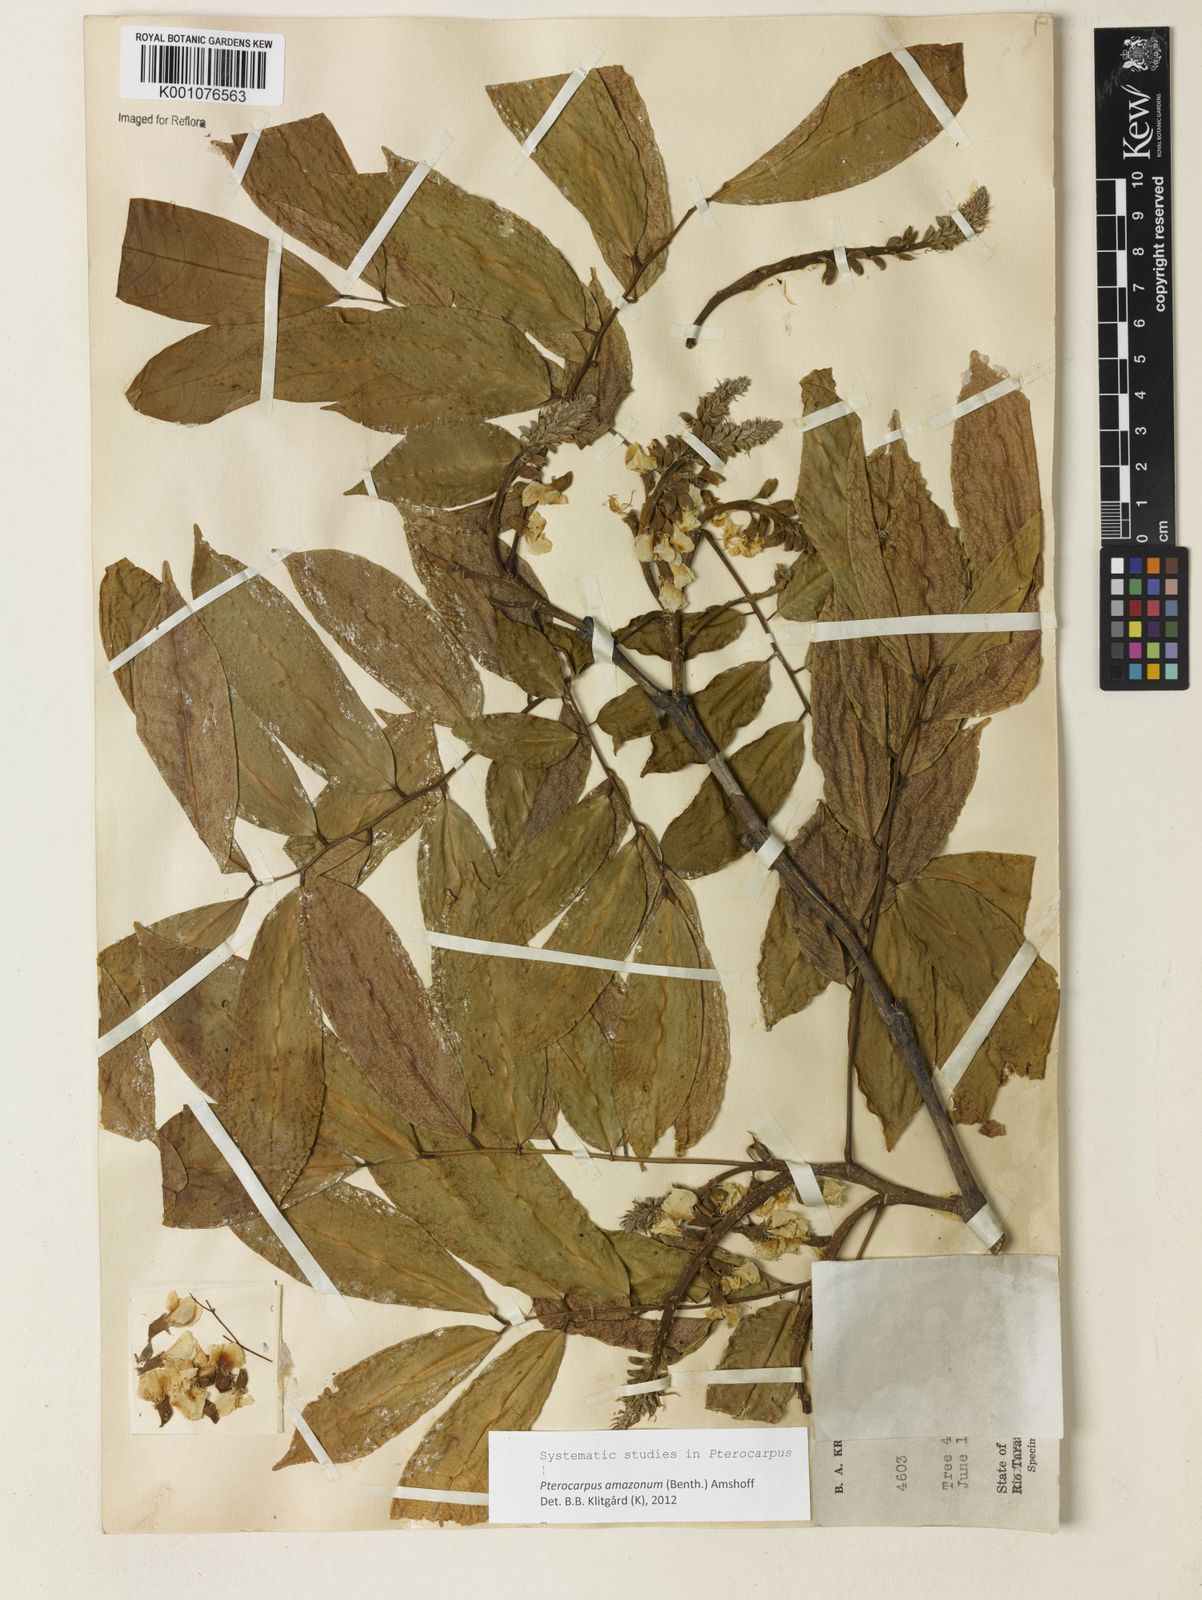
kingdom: Plantae
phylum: Tracheophyta
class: Magnoliopsida
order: Fabales
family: Fabaceae
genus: Pterocarpus
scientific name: Pterocarpus amazonum
